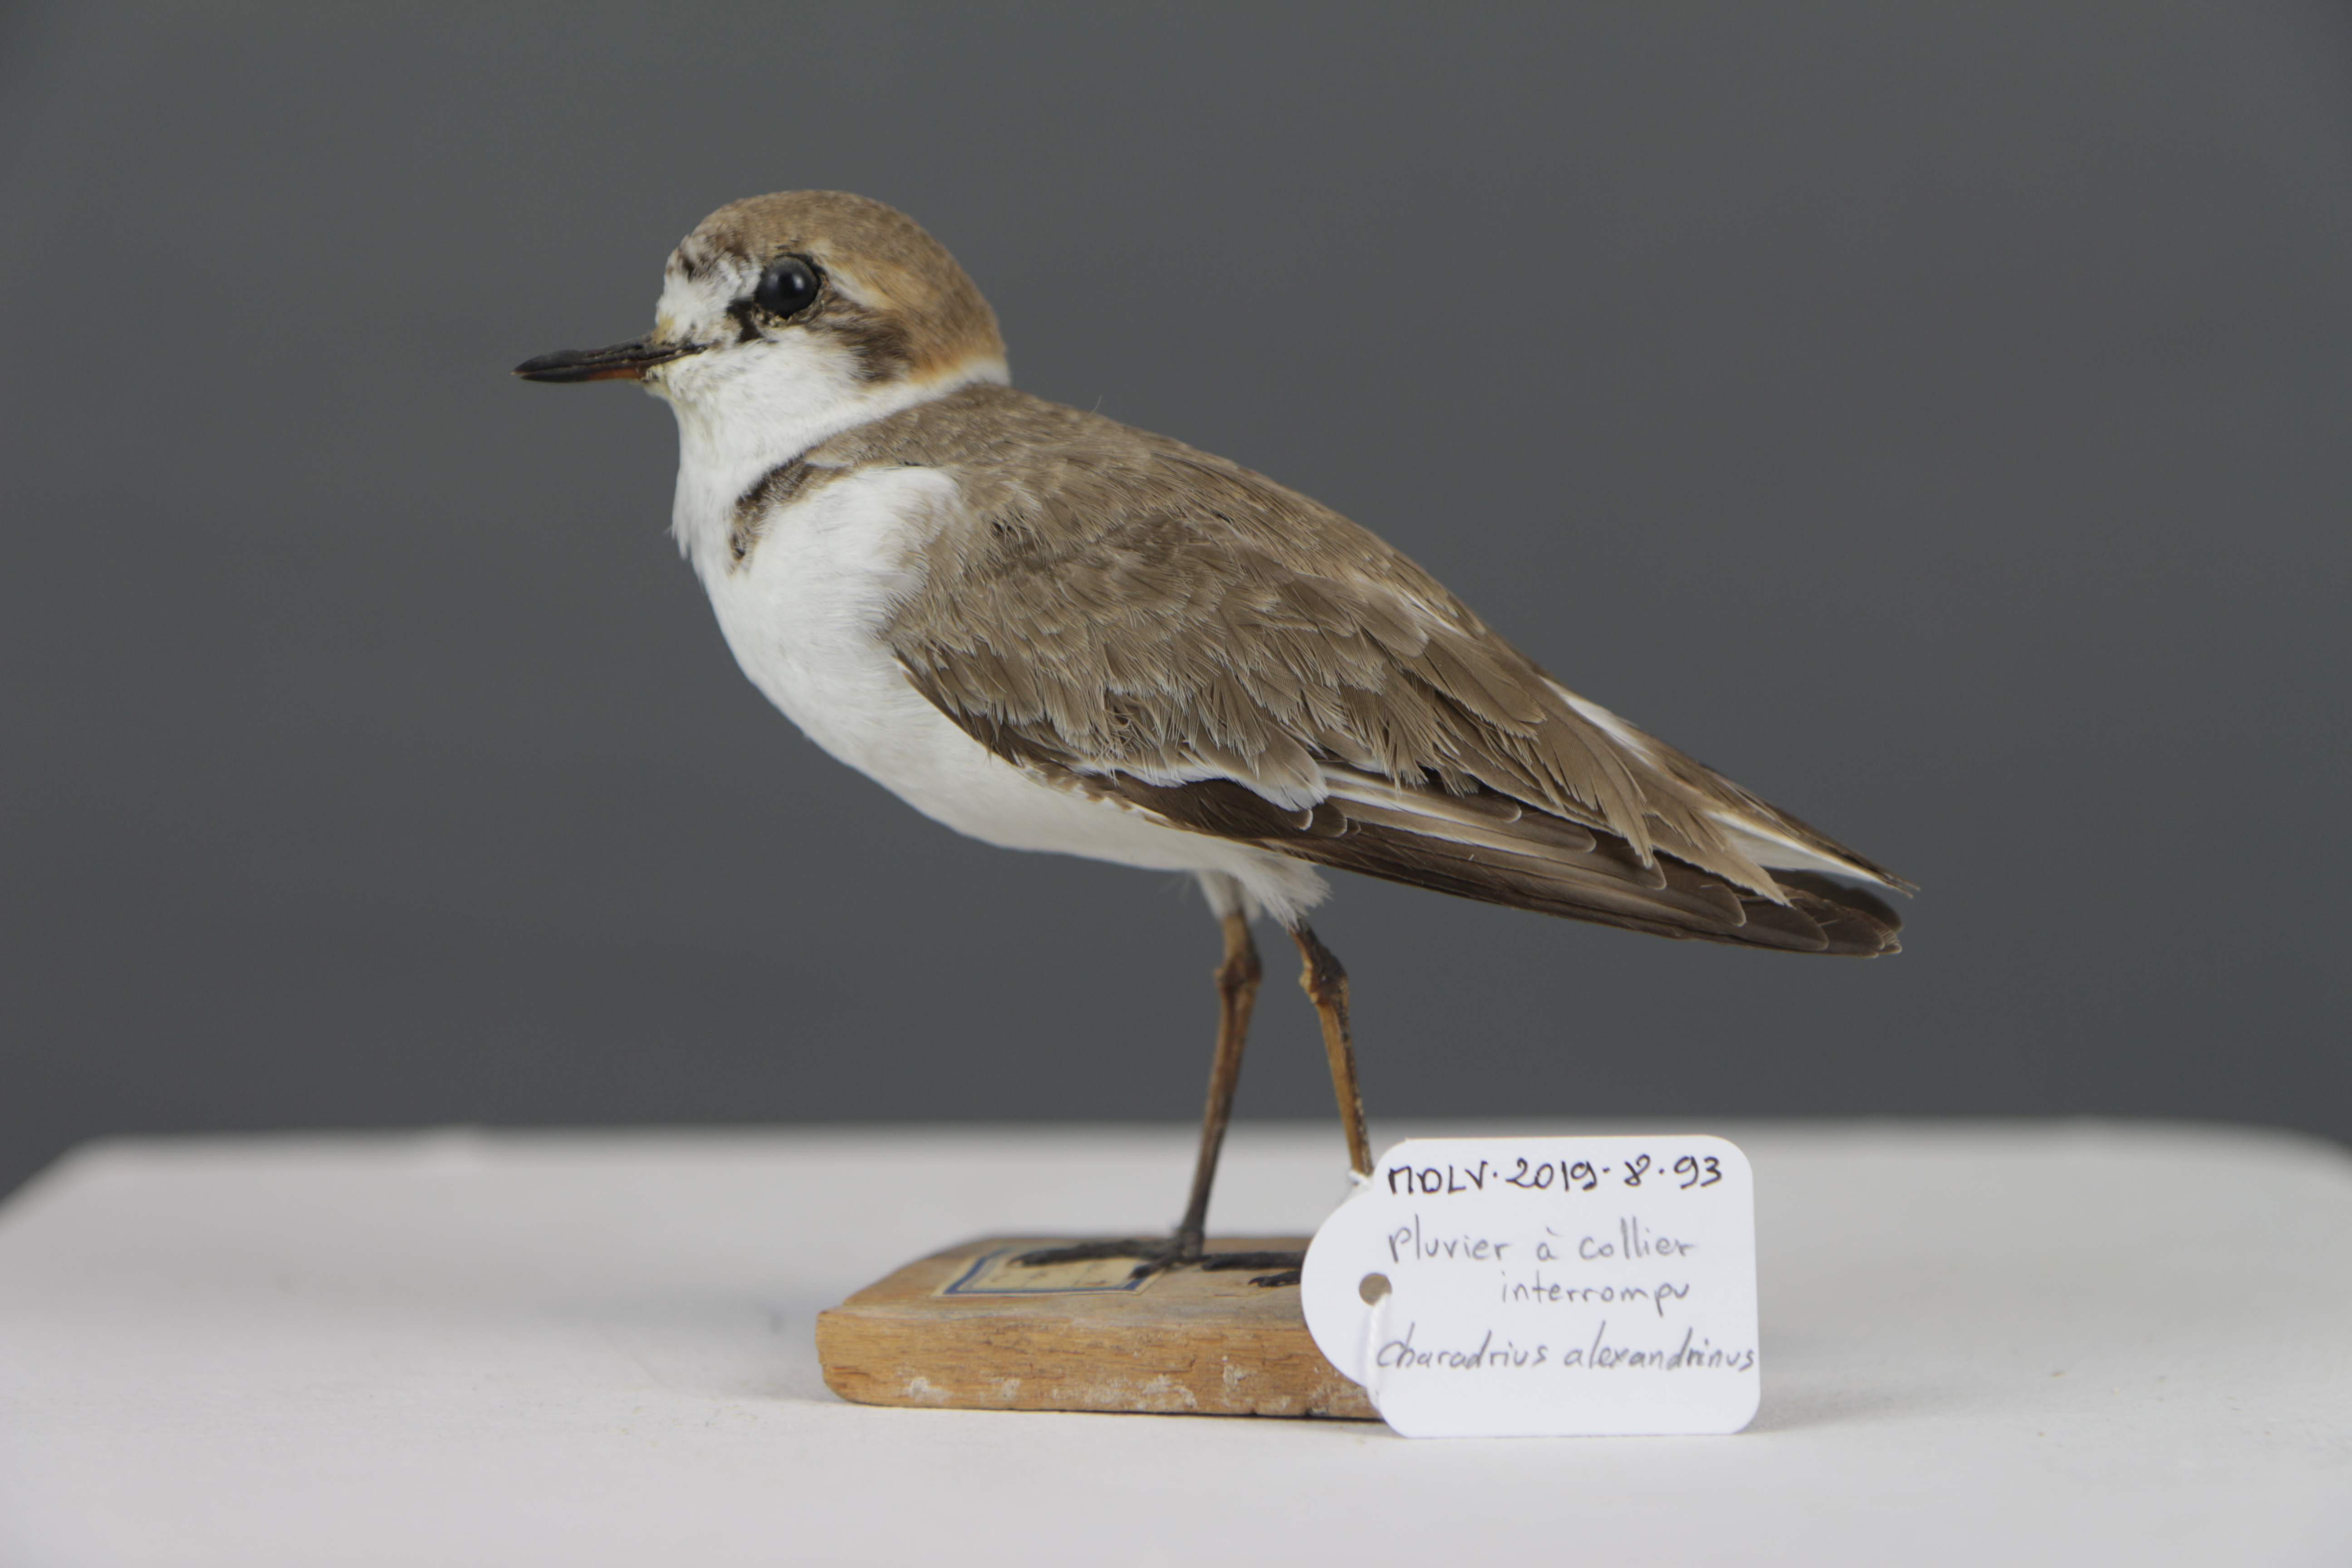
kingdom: Animalia
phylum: Chordata
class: Aves
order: Charadriiformes
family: Charadriidae
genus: Charadrius
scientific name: Charadrius alexandrinus
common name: Kentish plover
